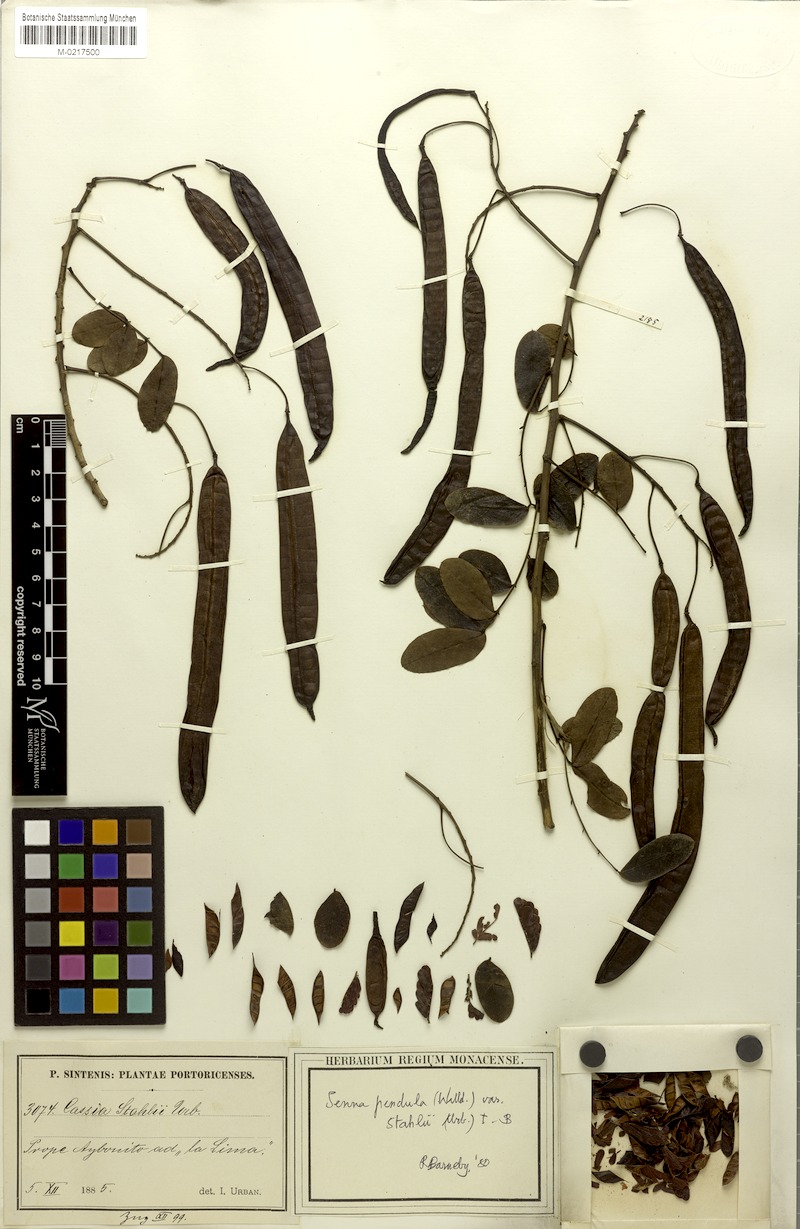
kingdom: Plantae
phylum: Tracheophyta
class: Magnoliopsida
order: Fabales
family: Fabaceae
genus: Senna
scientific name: Senna pendula
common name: Easter cassia
